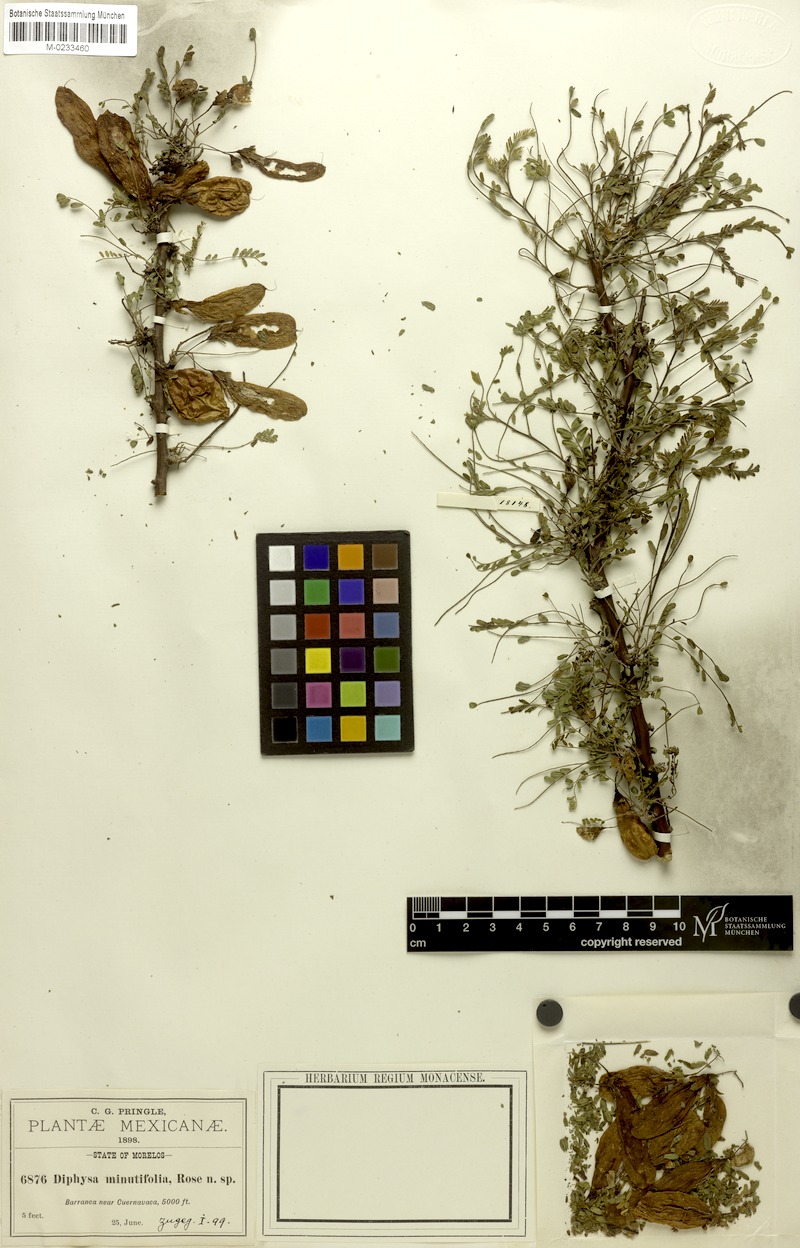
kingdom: Plantae
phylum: Tracheophyta
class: Magnoliopsida
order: Fabales
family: Fabaceae
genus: Diphysa
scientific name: Diphysa minutifolia
